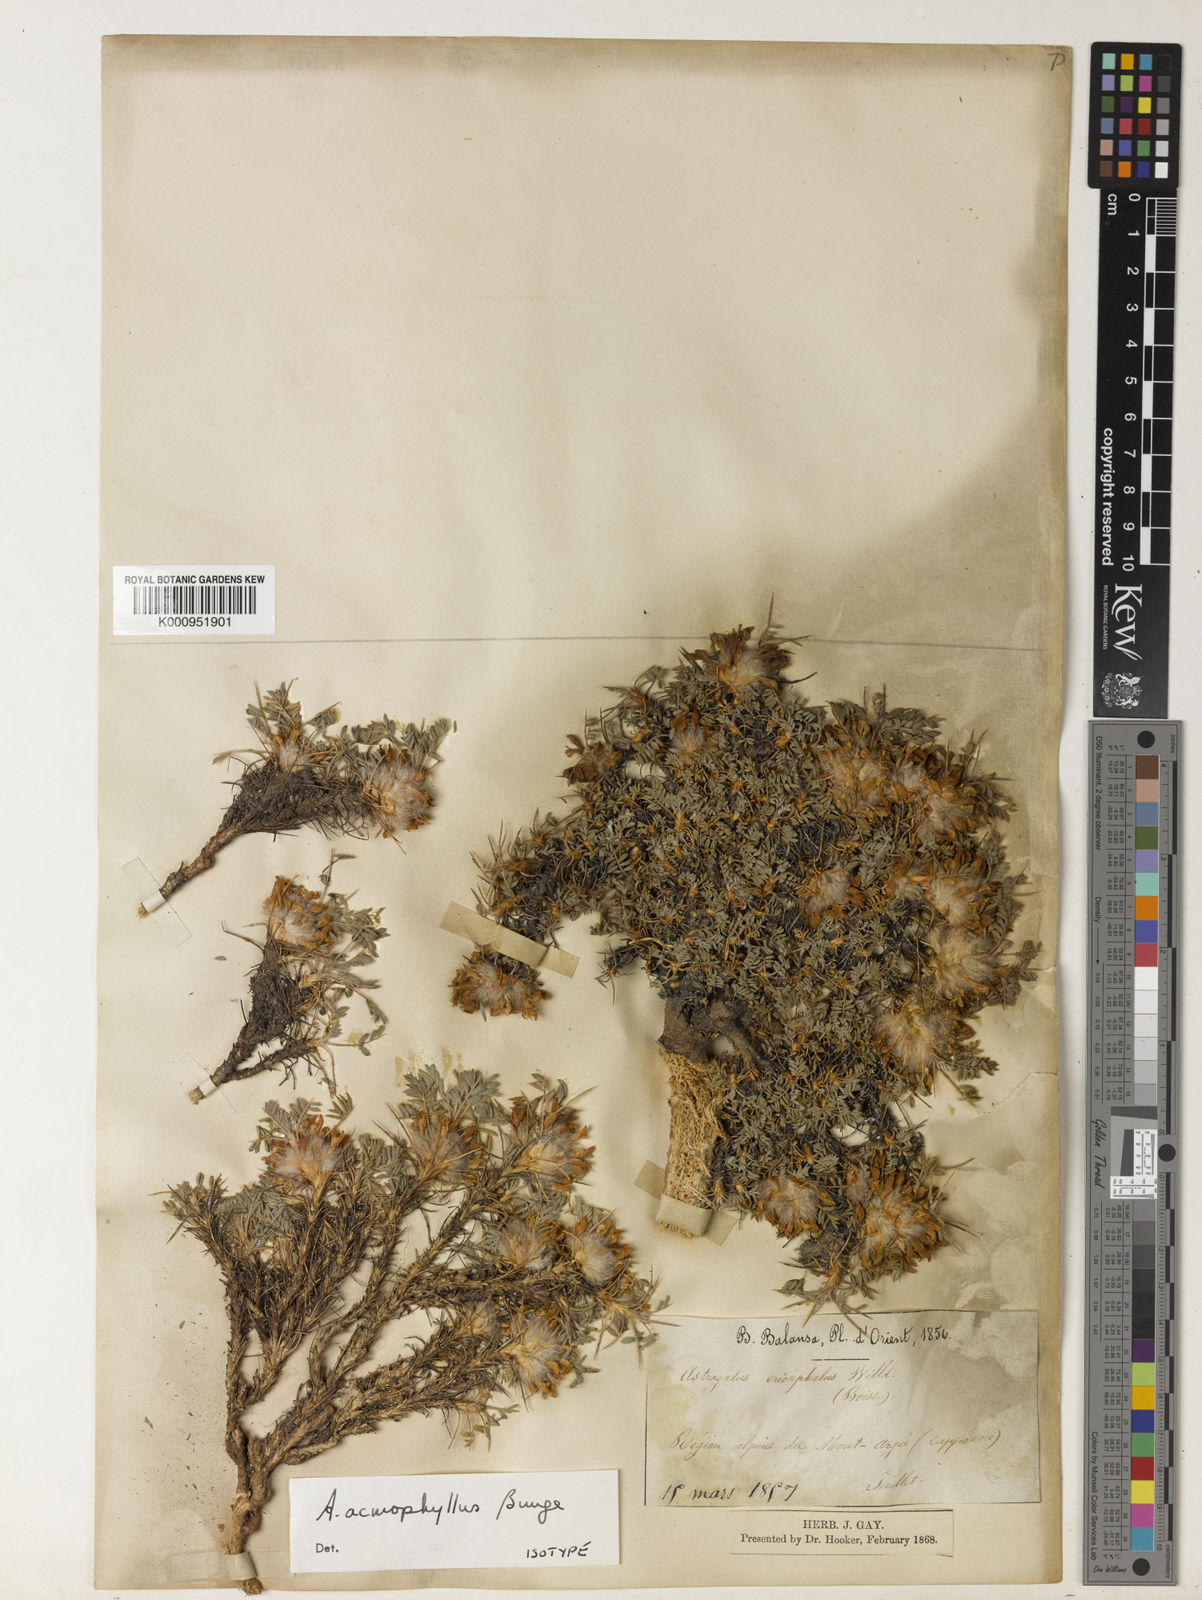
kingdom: Plantae
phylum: Tracheophyta
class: Magnoliopsida
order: Fabales
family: Fabaceae
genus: Astragalus
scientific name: Astragalus acmophyllus
